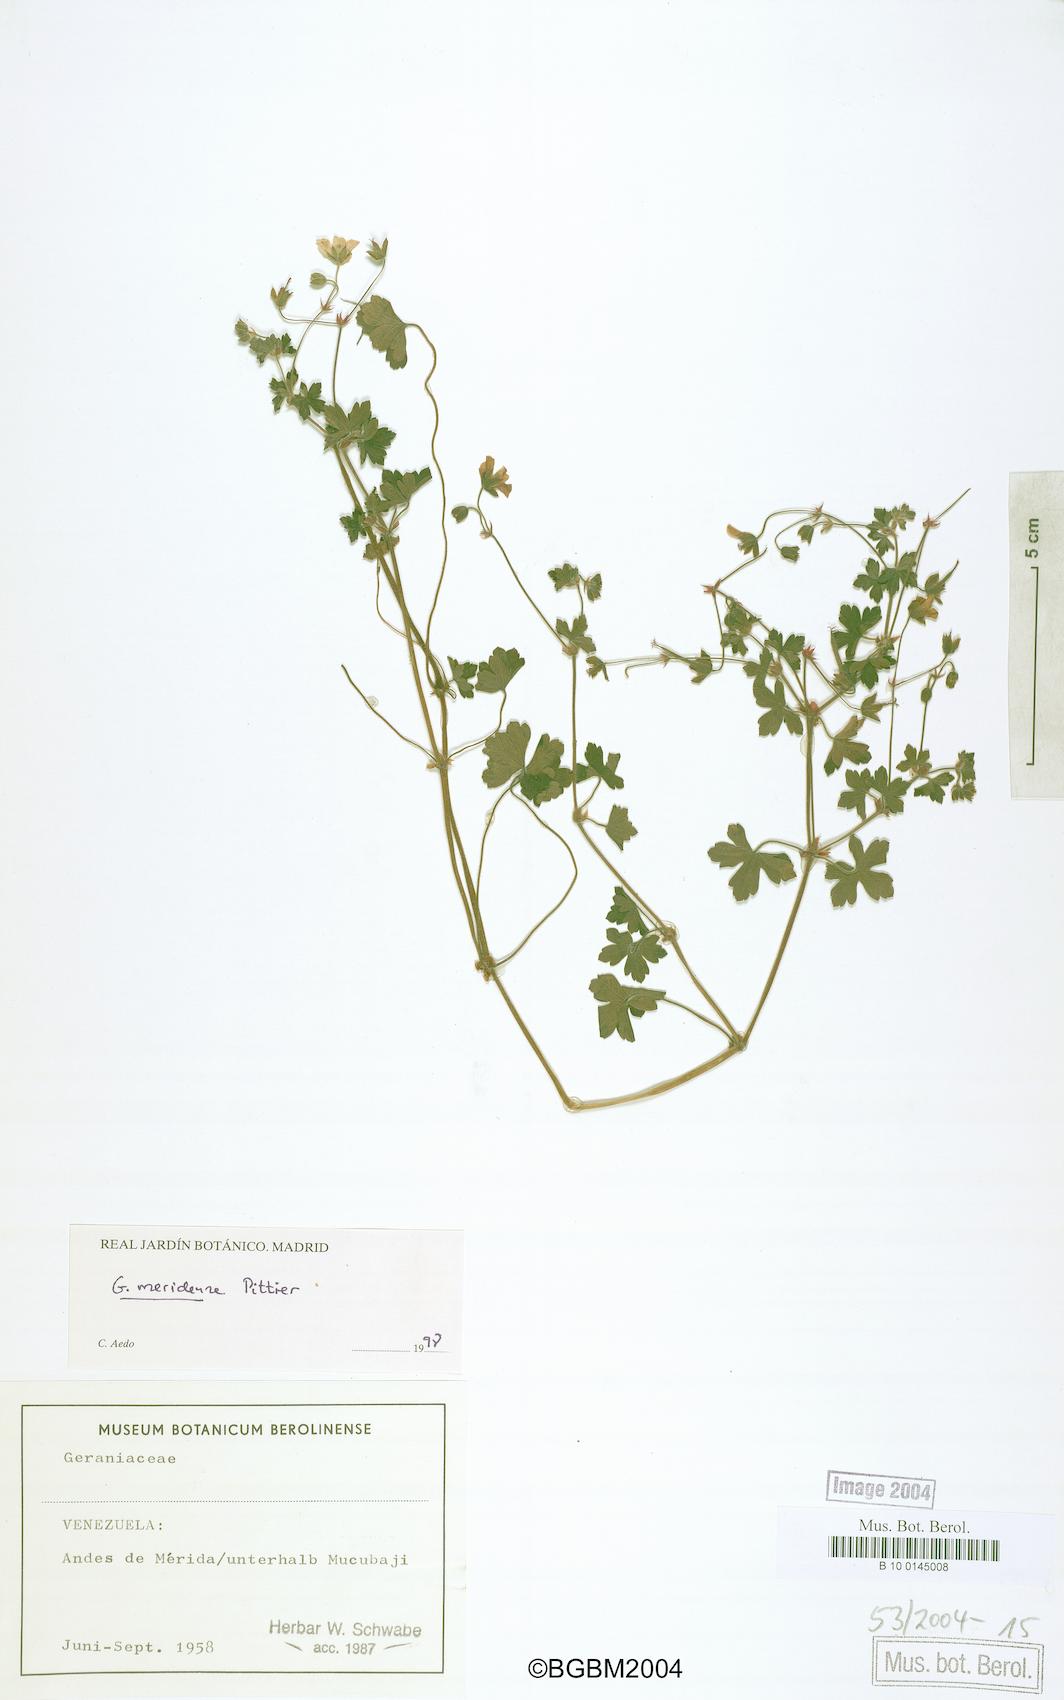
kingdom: Plantae
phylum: Tracheophyta
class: Magnoliopsida
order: Geraniales
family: Geraniaceae
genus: Geranium
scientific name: Geranium meridense
